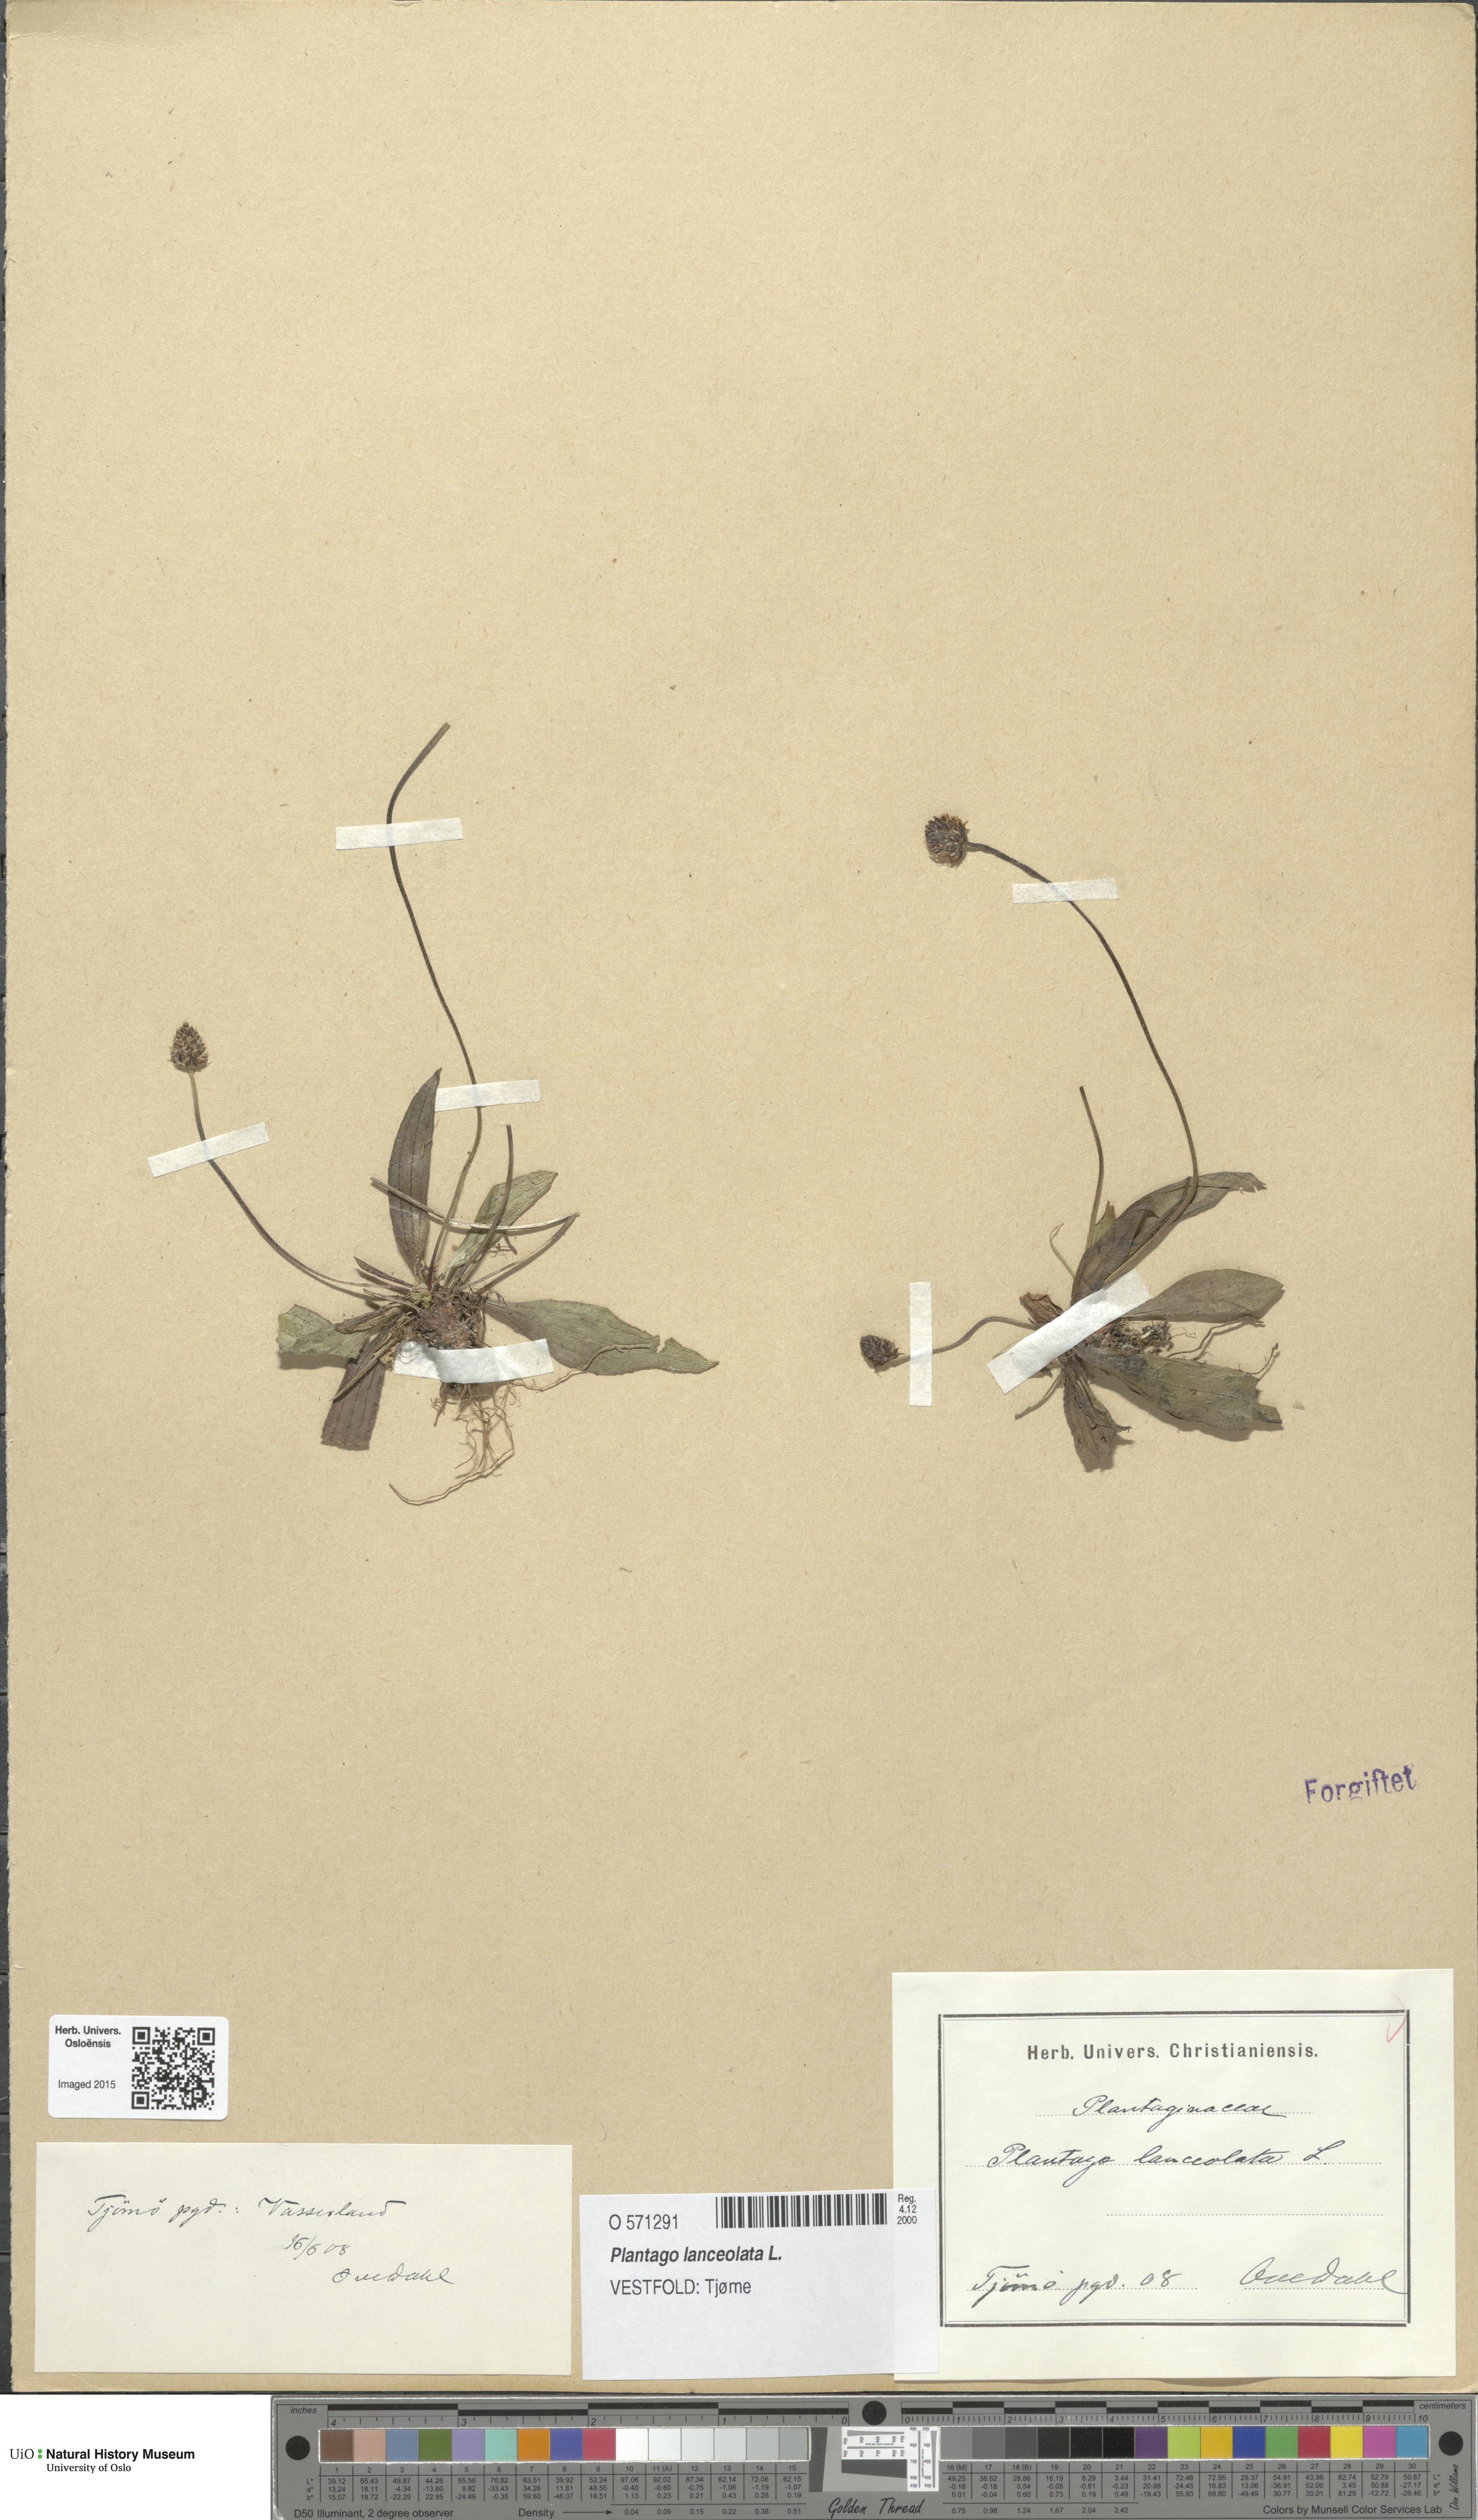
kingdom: Plantae
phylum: Tracheophyta
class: Magnoliopsida
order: Lamiales
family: Plantaginaceae
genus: Plantago
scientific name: Plantago lanceolata
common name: Ribwort plantain
